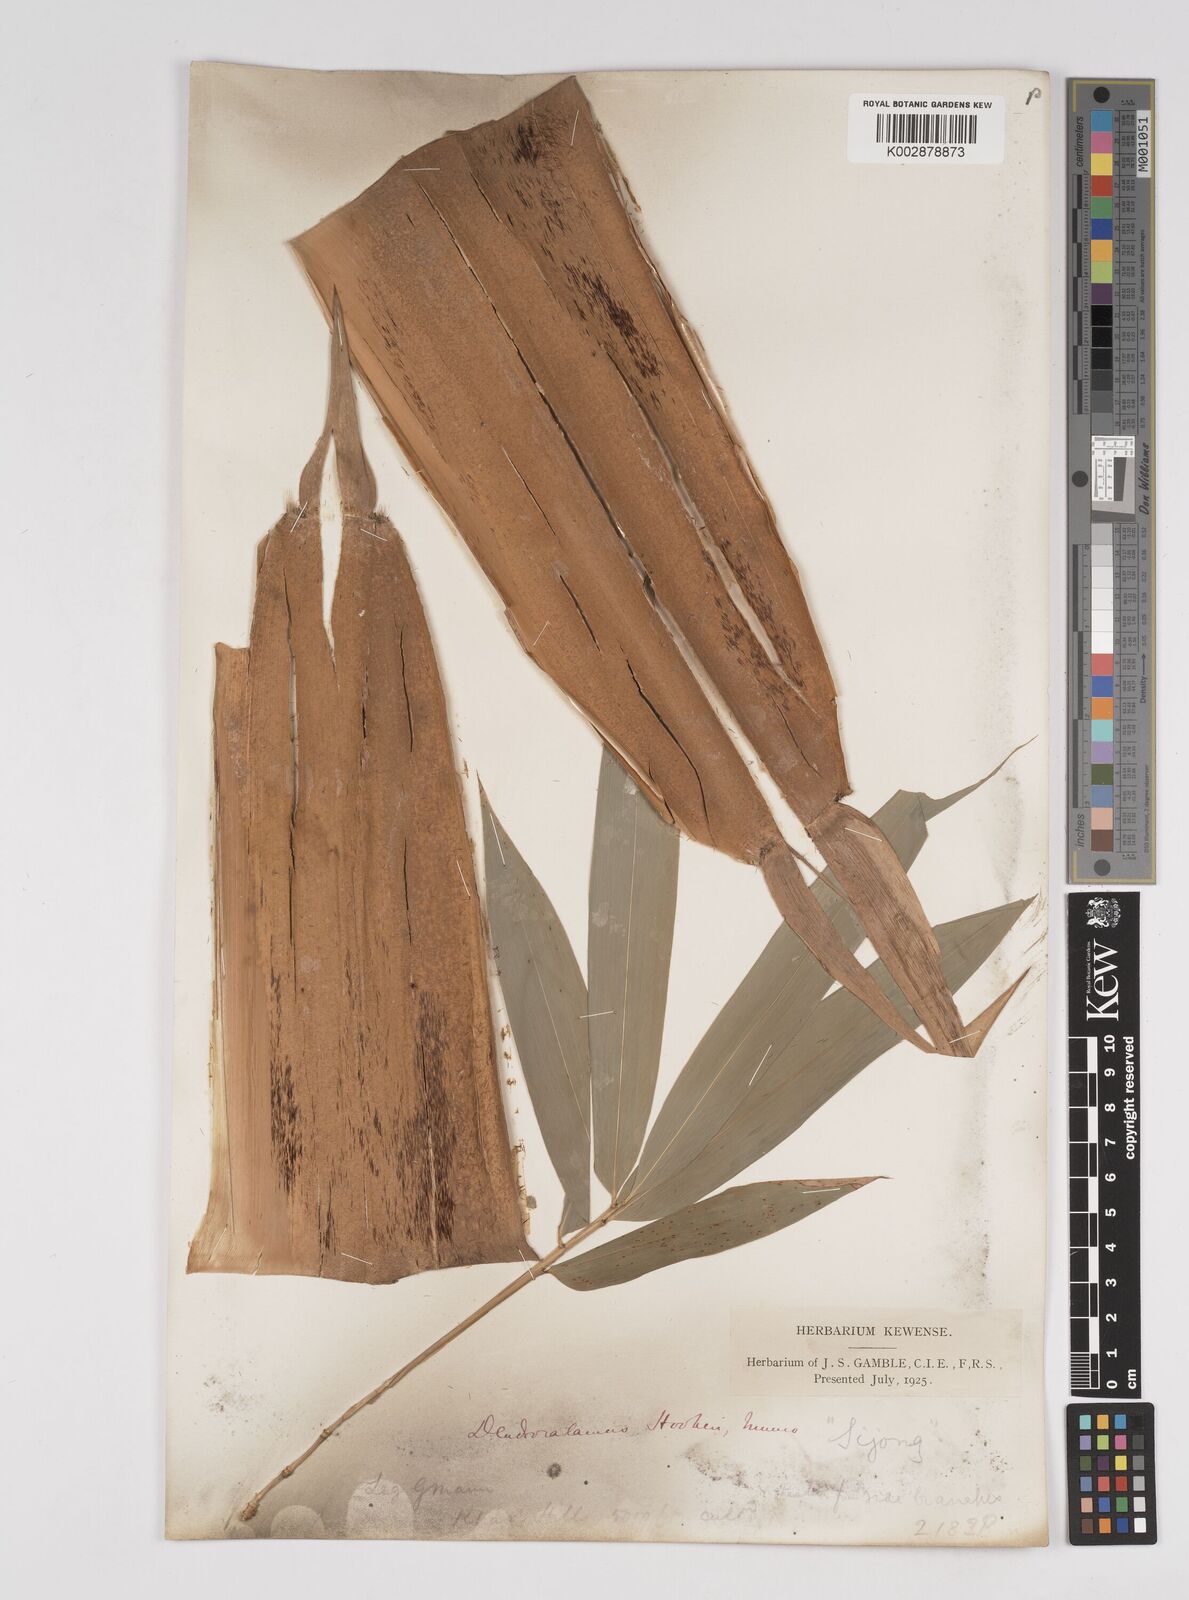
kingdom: Plantae
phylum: Tracheophyta
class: Liliopsida
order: Poales
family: Poaceae
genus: Dendrocalamus
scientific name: Dendrocalamus hookeri
